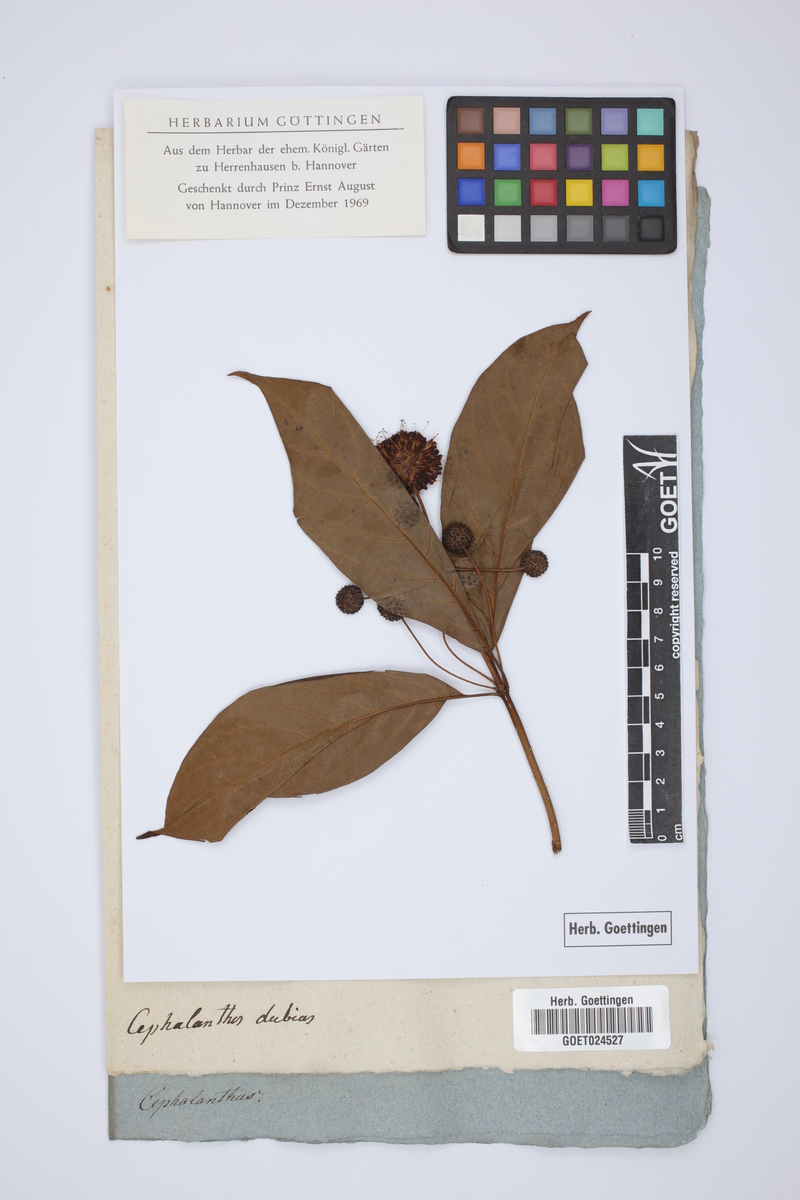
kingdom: Plantae
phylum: Tracheophyta
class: Magnoliopsida
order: Gentianales
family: Rubiaceae
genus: Cephalanthus
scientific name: Cephalanthus
